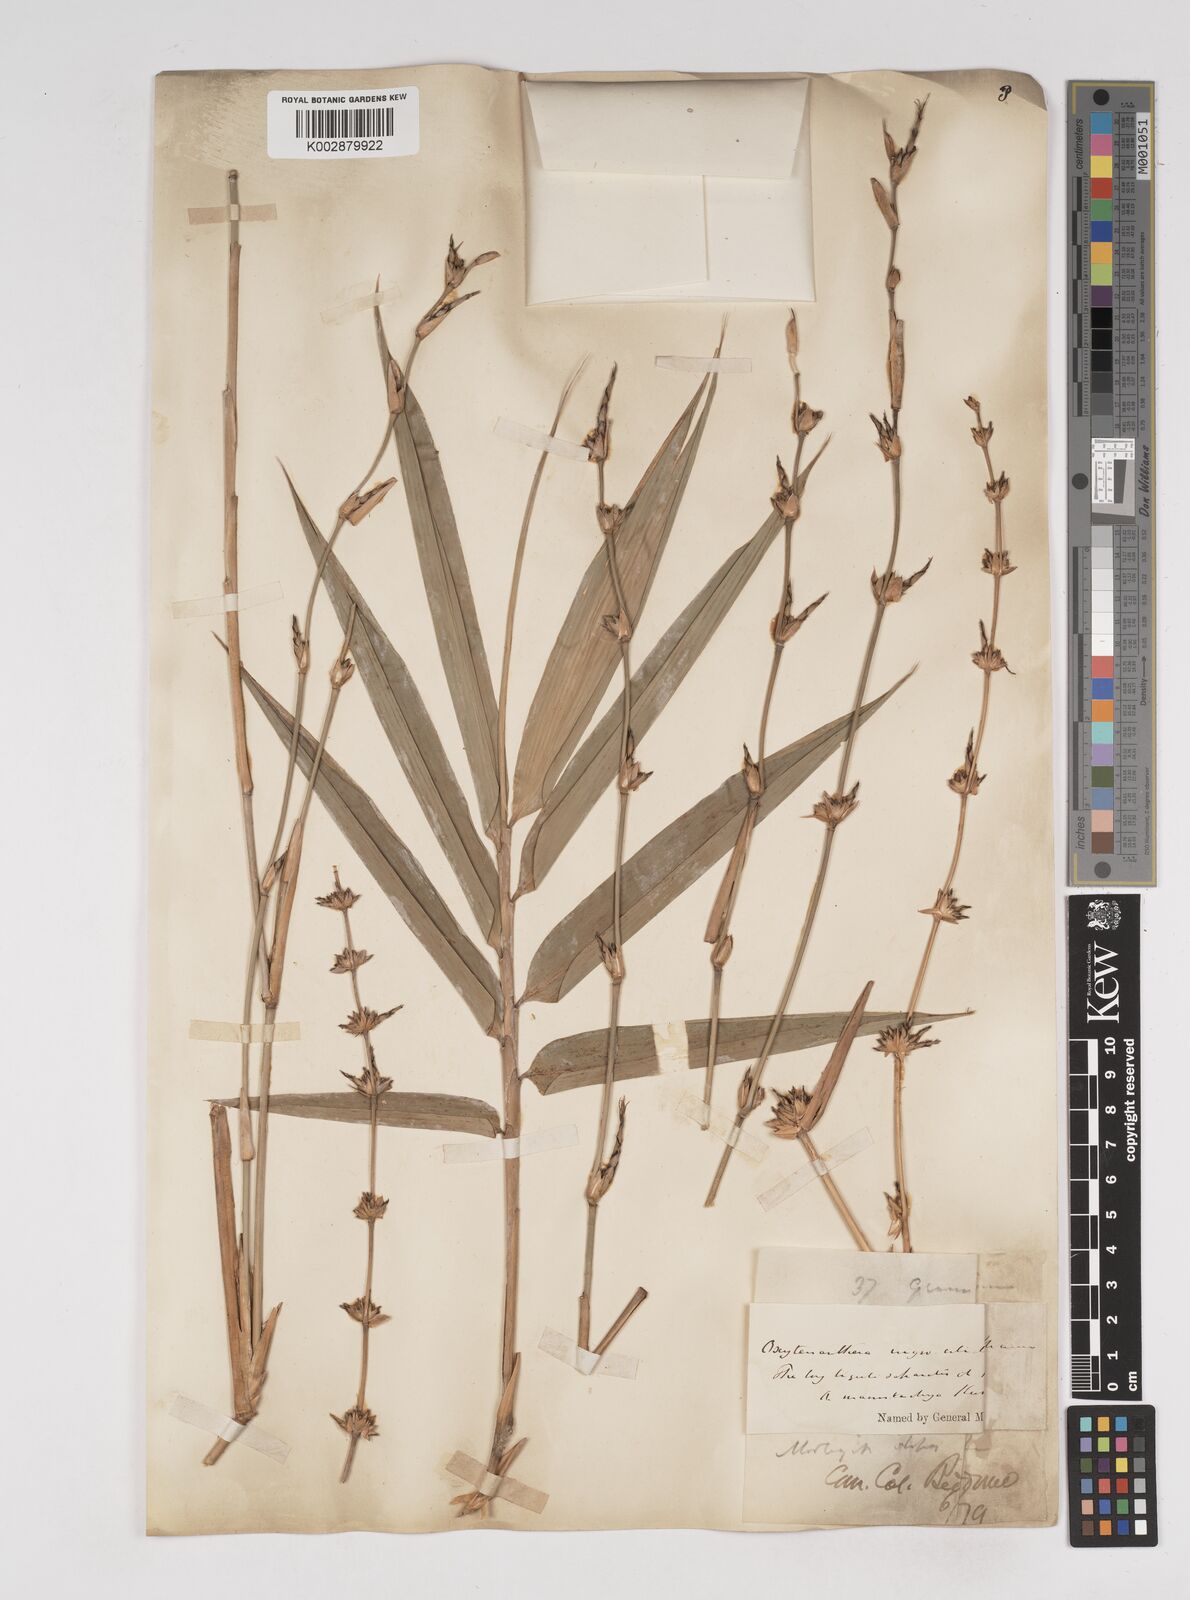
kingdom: Plantae
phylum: Tracheophyta
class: Liliopsida
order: Poales
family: Poaceae
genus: Gigantochloa
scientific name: Gigantochloa nigrociliata
